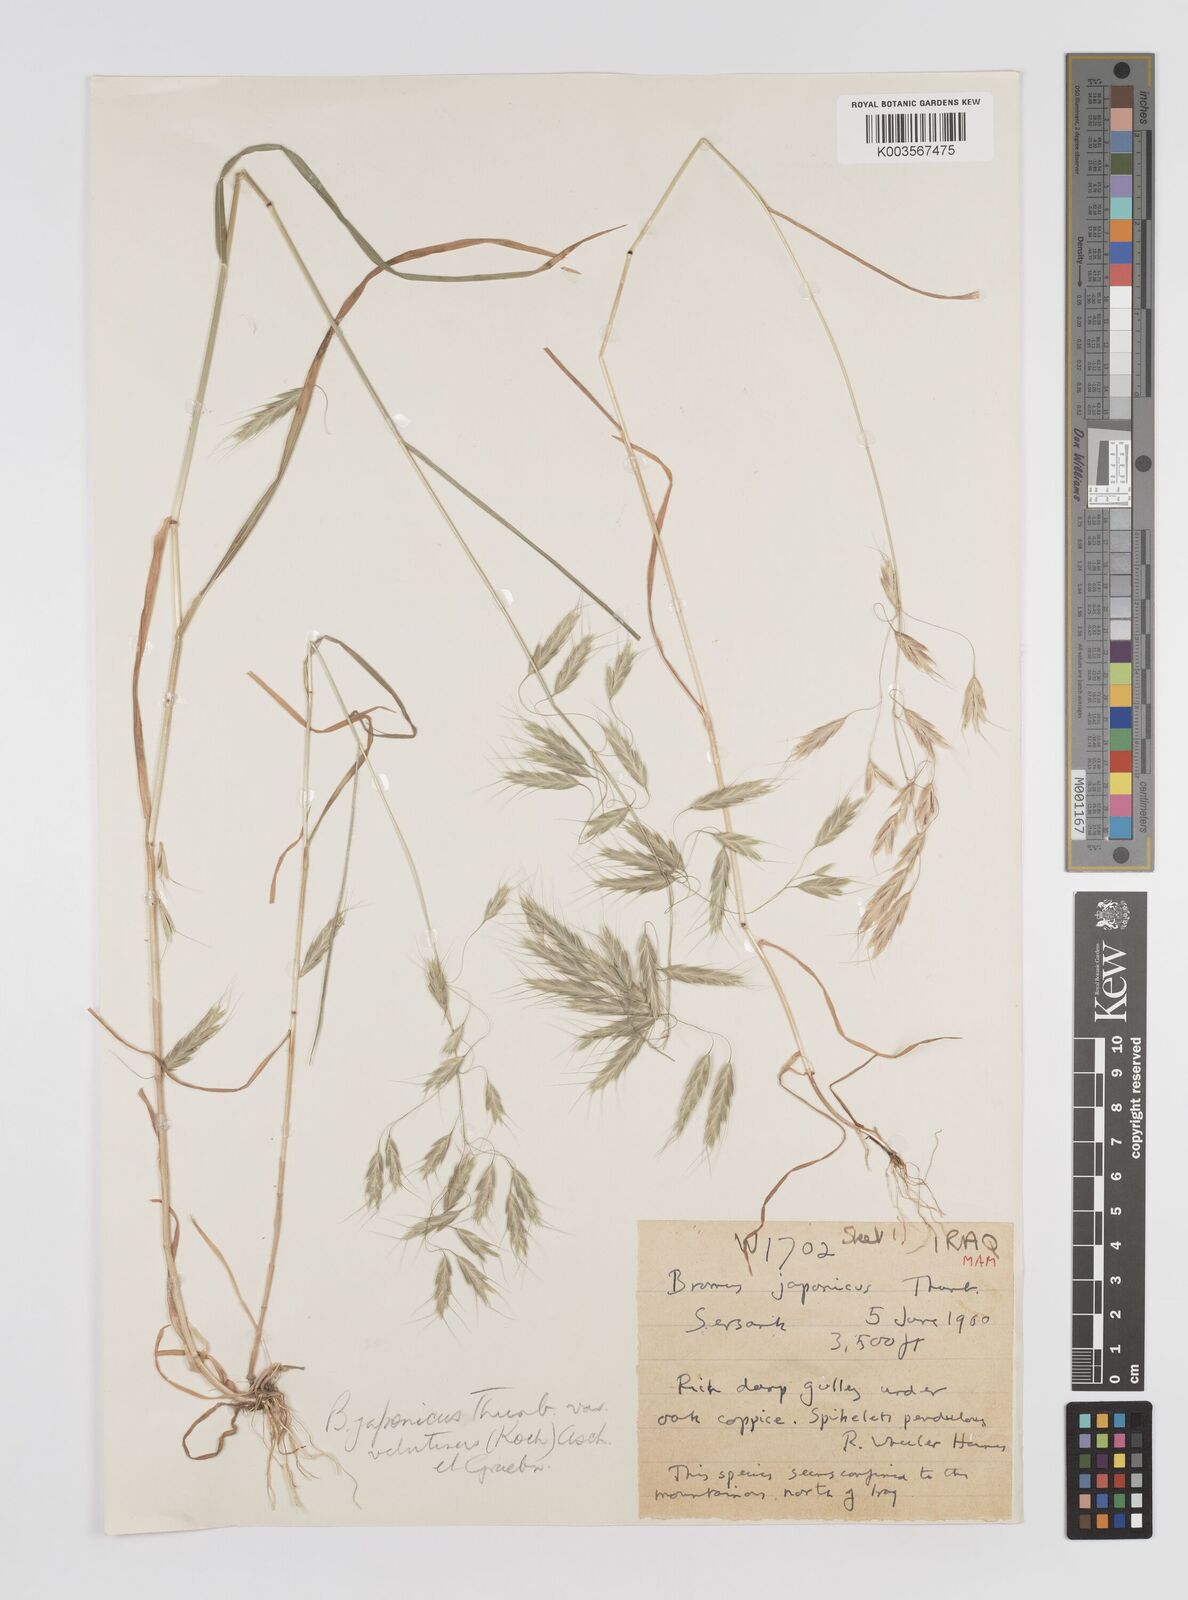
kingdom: Plantae
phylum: Tracheophyta
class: Liliopsida
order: Poales
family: Poaceae
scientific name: Poaceae
